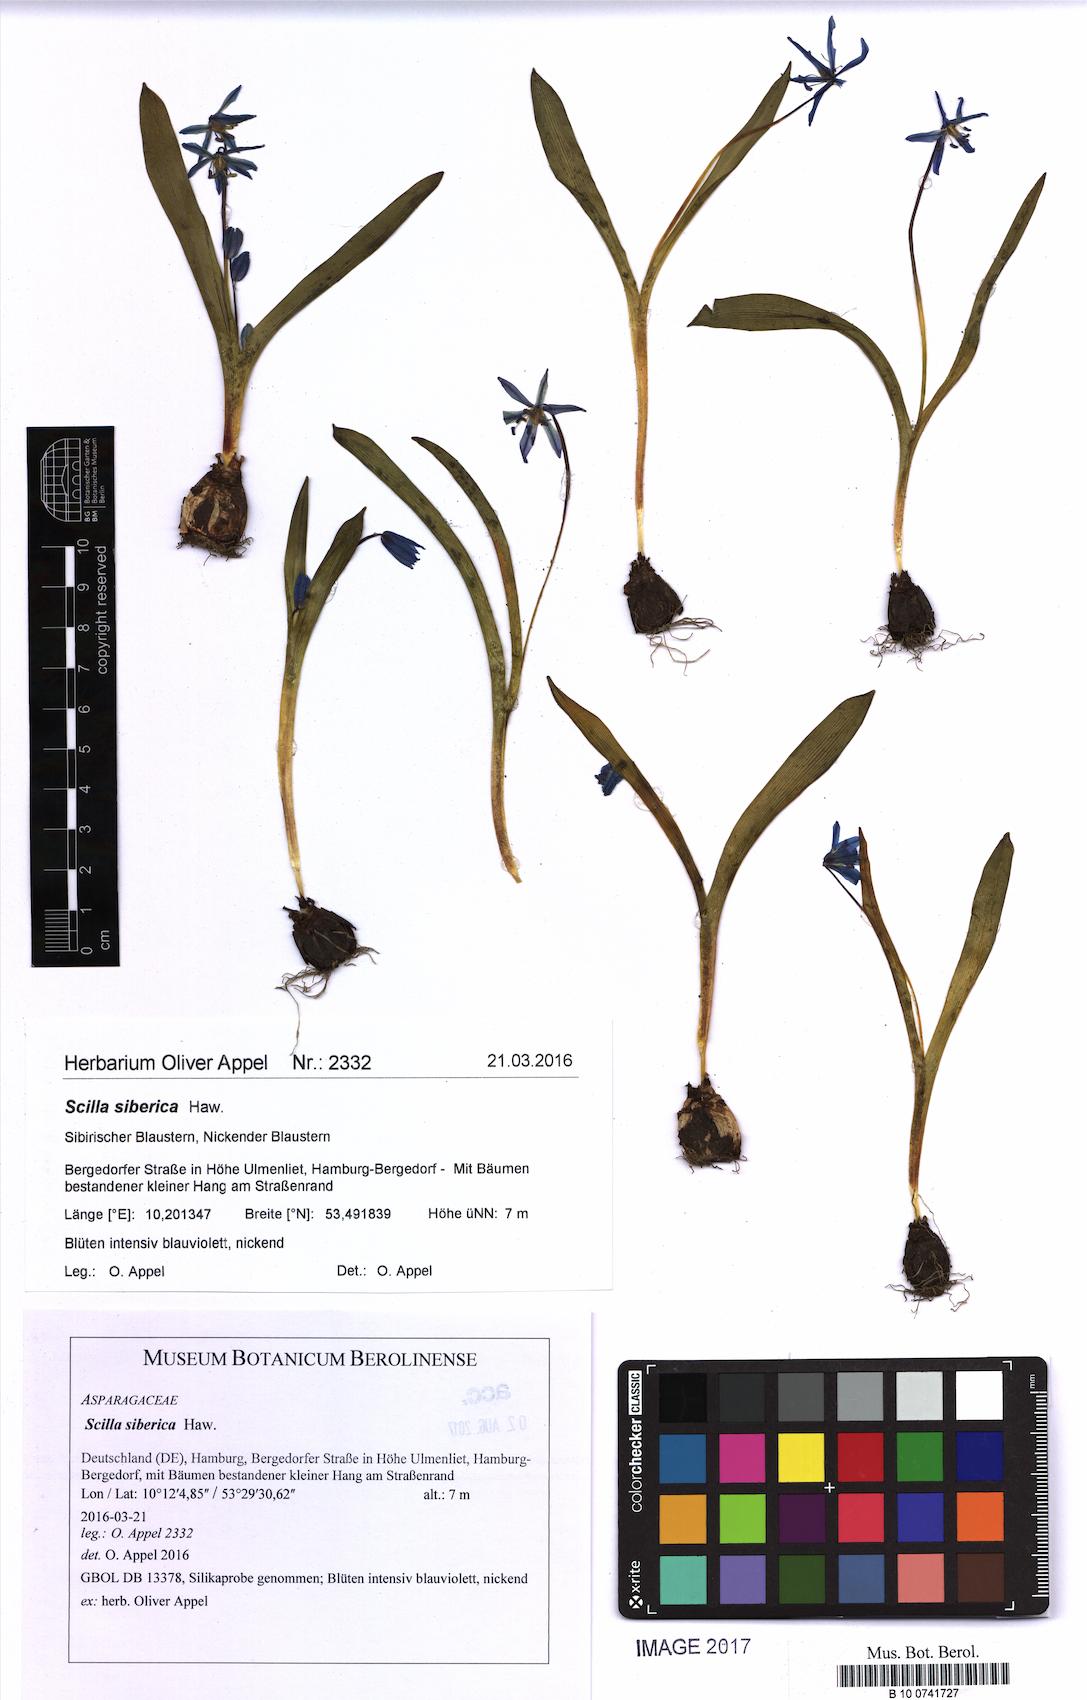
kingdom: Plantae
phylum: Tracheophyta
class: Liliopsida
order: Asparagales
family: Asparagaceae
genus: Scilla
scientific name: Scilla siberica
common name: Siberian squill
